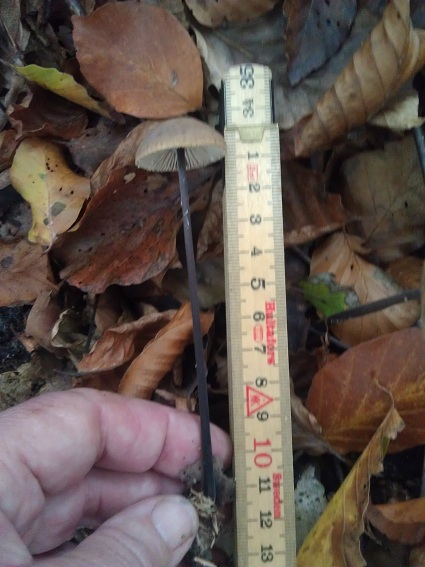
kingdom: Fungi
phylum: Basidiomycota
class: Agaricomycetes
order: Agaricales
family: Omphalotaceae
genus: Mycetinis
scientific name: Mycetinis alliaceus
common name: stor løghat
